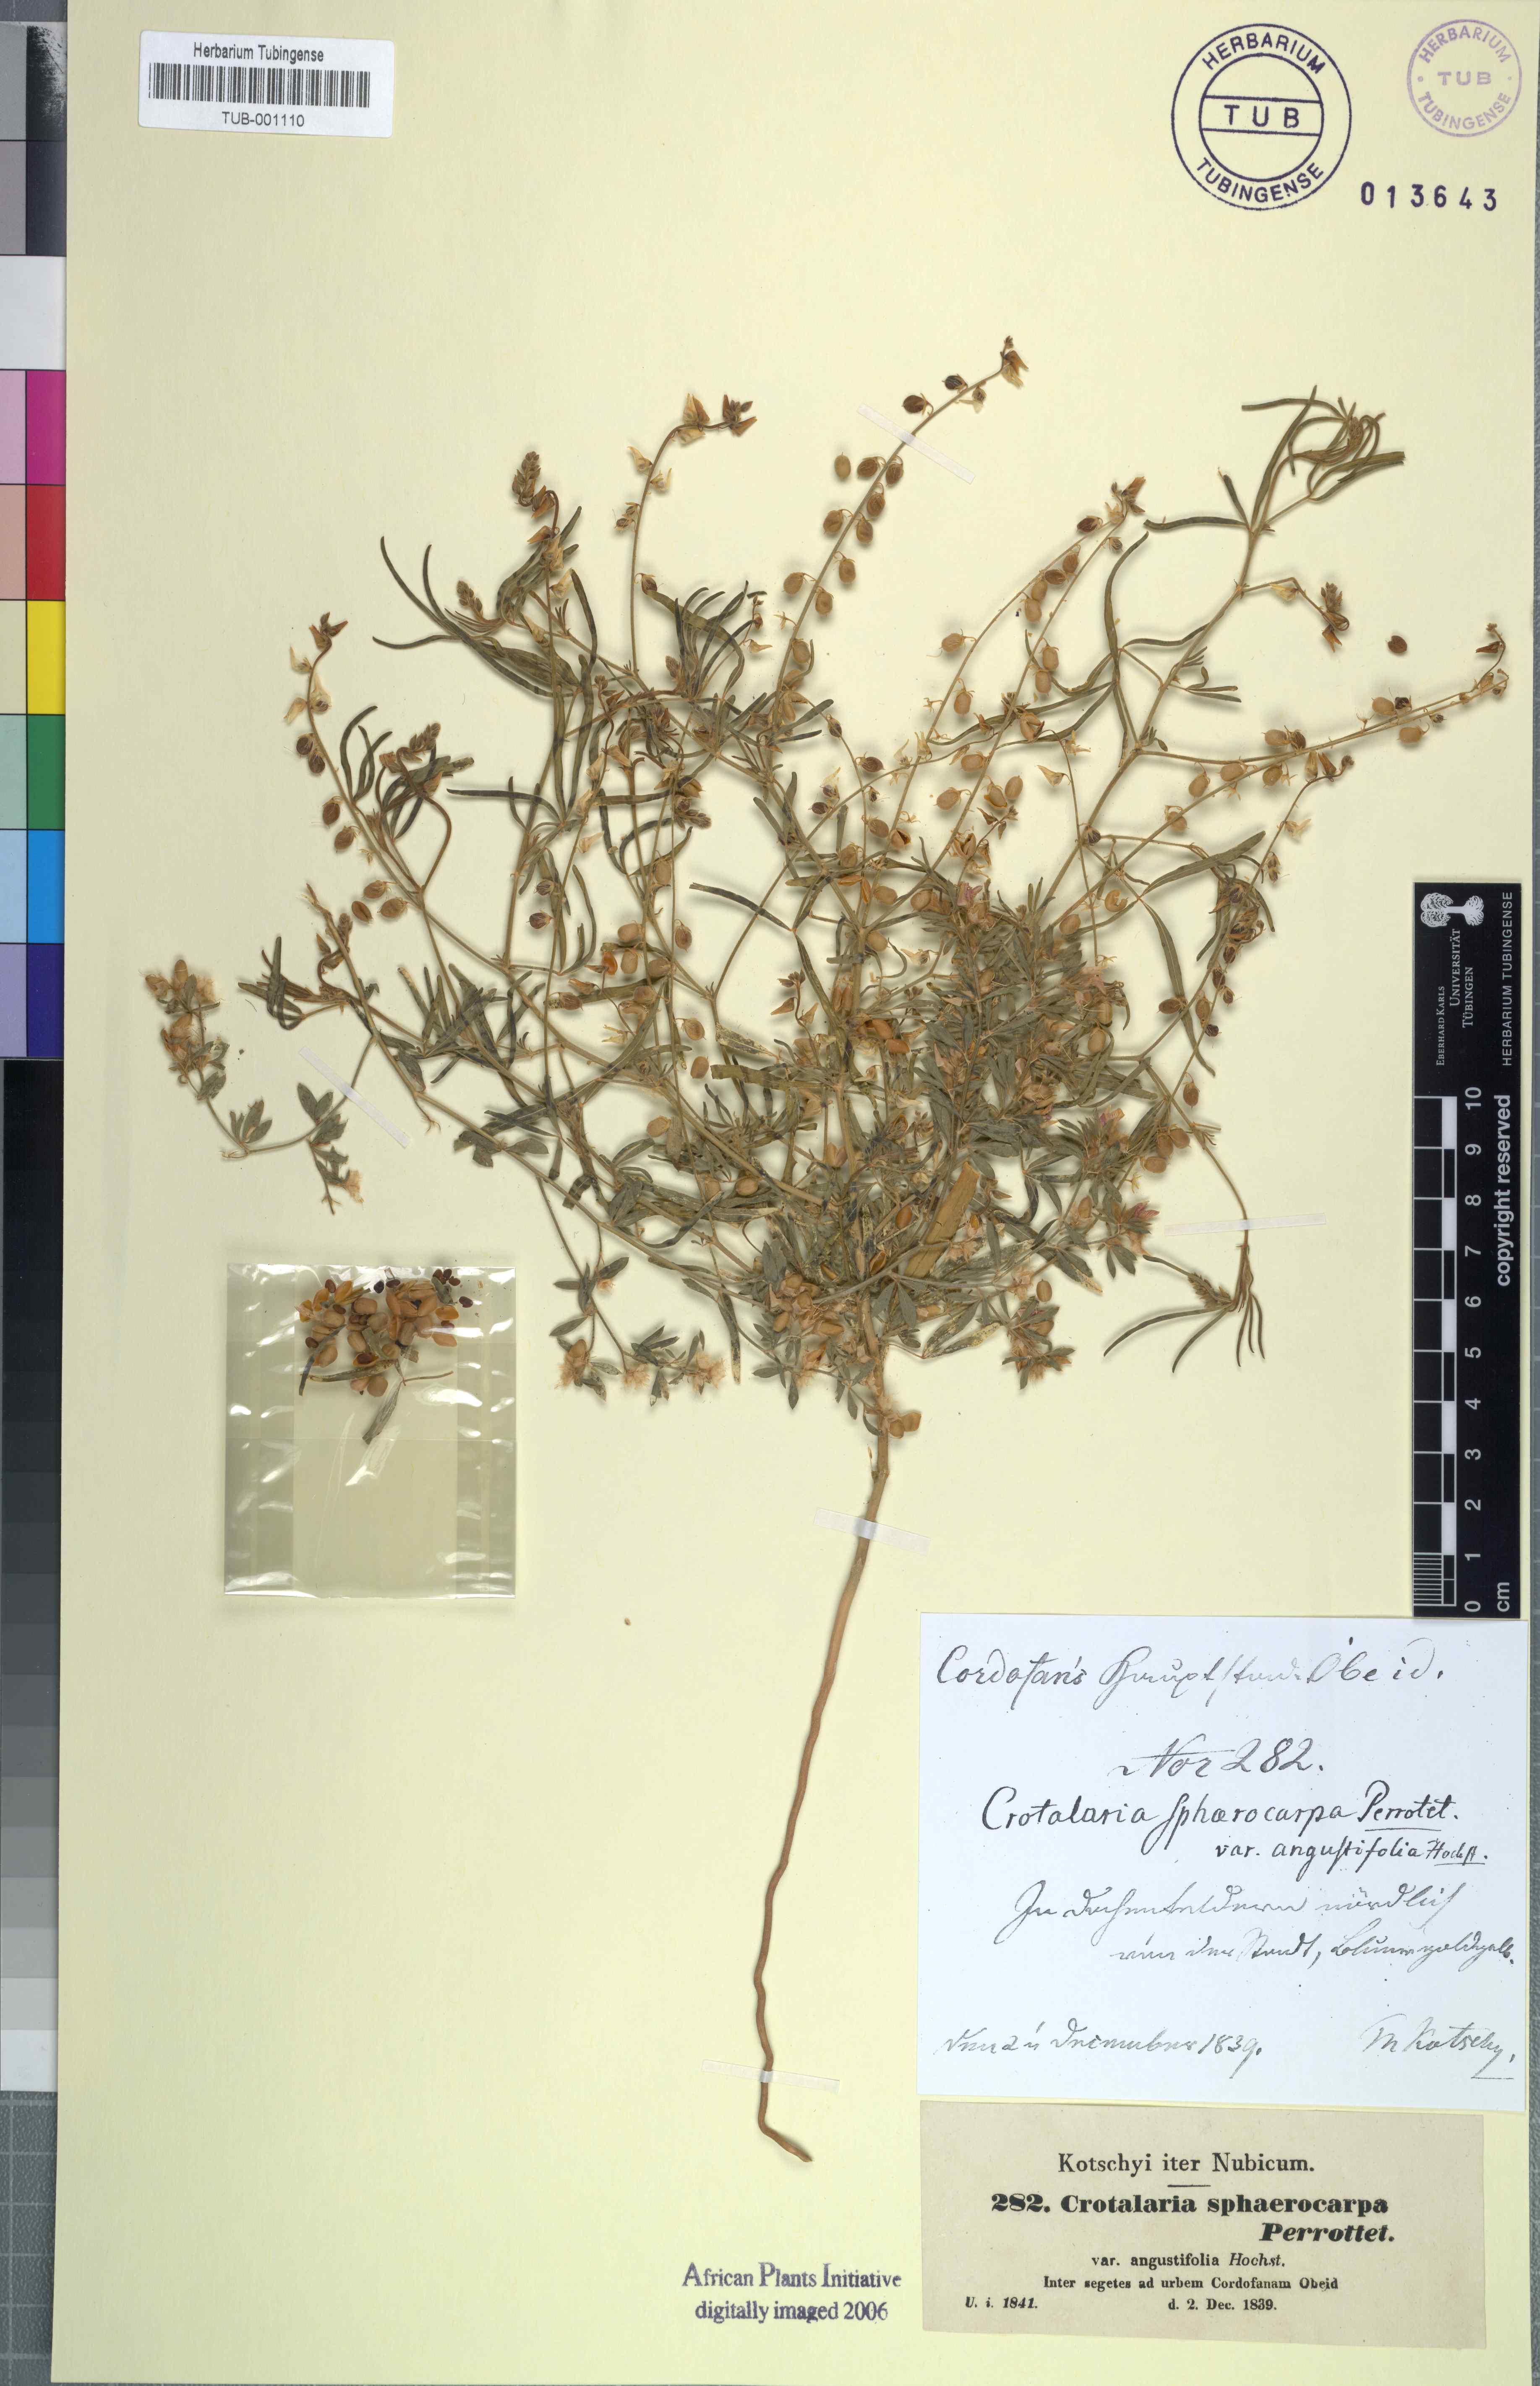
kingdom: Plantae
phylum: Tracheophyta
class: Magnoliopsida
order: Fabales
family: Fabaceae
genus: Crotalaria
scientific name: Crotalaria sphaerocarpa
